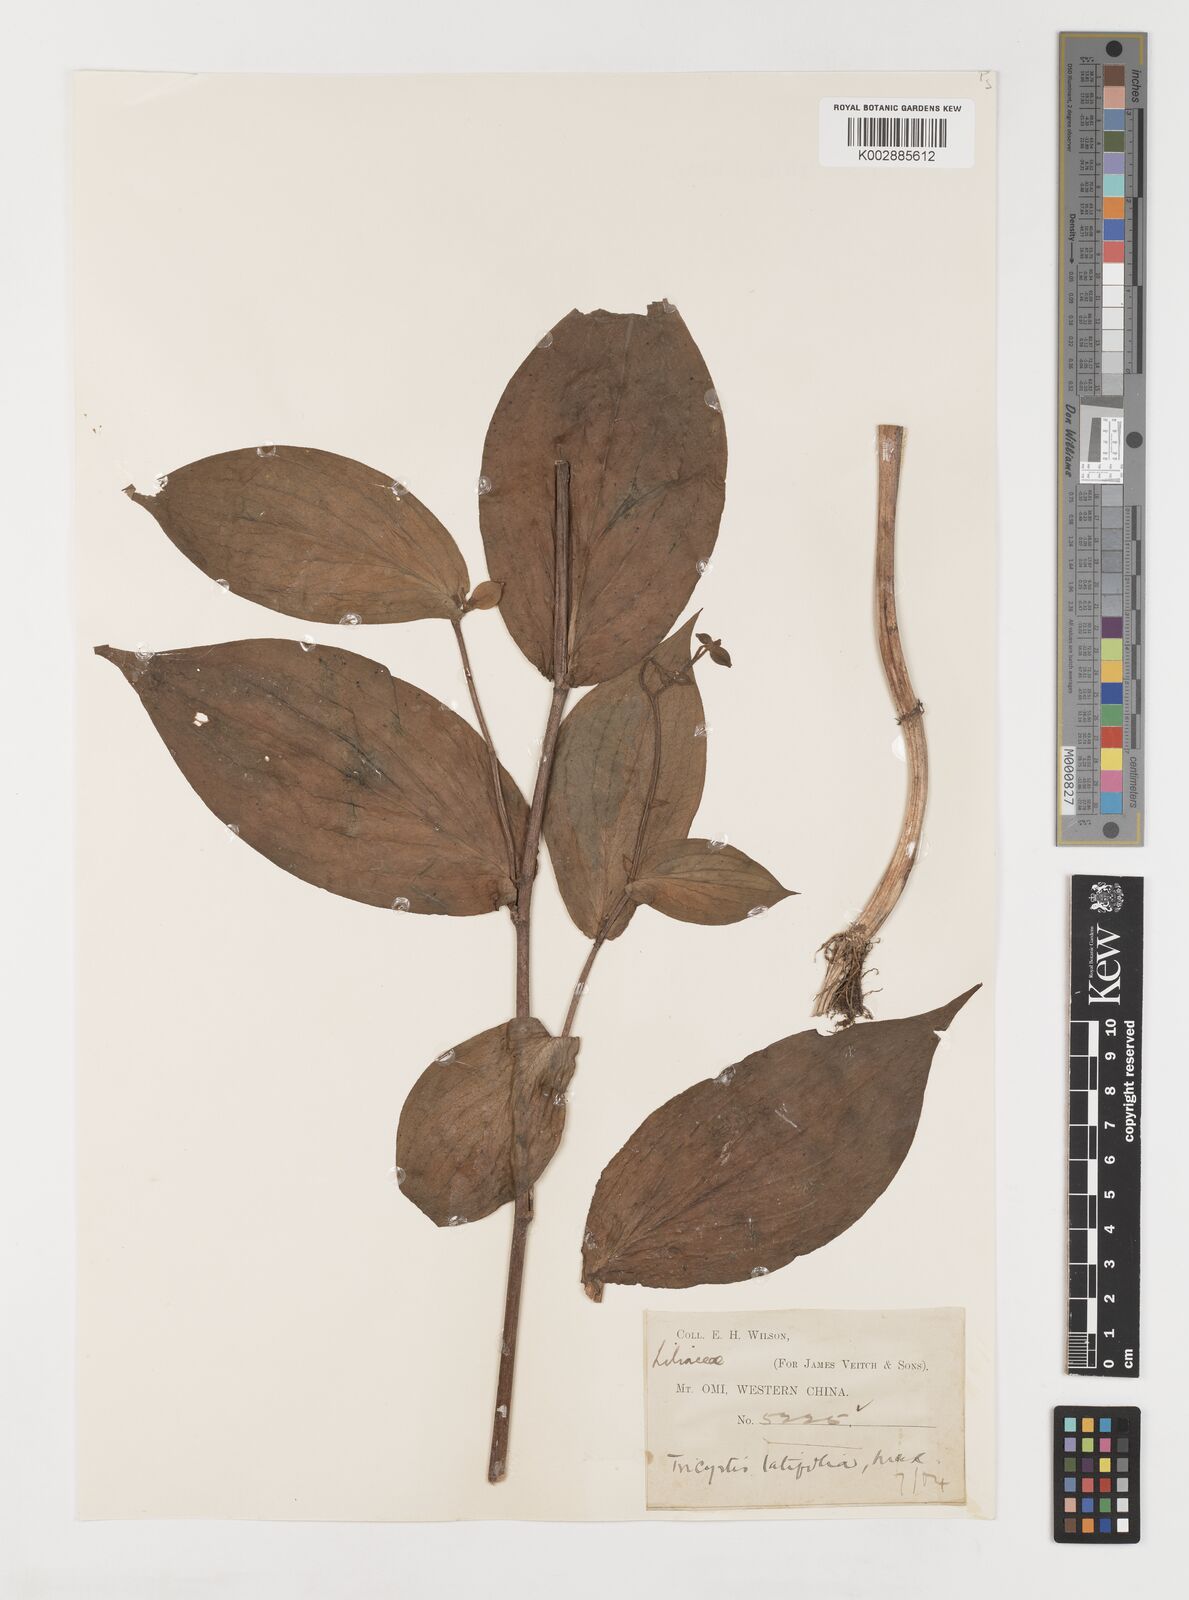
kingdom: Plantae
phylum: Tracheophyta
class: Liliopsida
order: Liliales
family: Liliaceae
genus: Tricyrtis
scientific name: Tricyrtis latifolia
